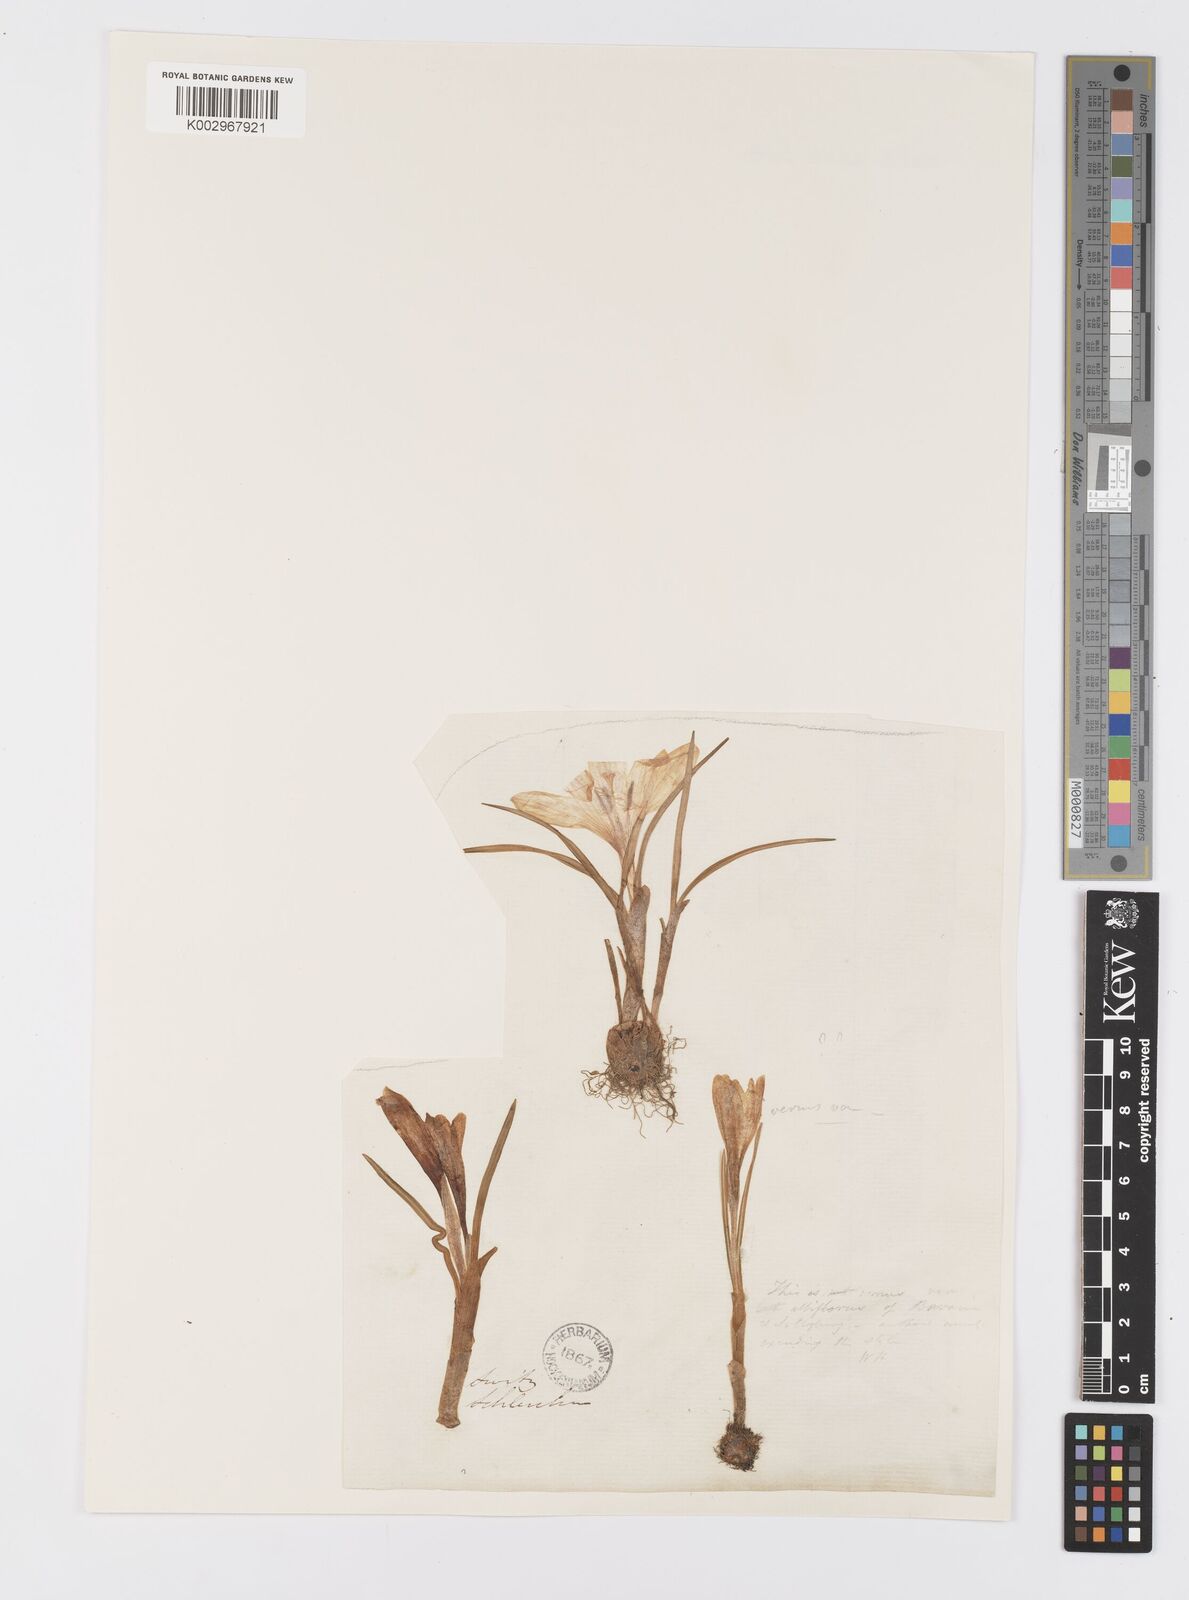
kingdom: Plantae
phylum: Tracheophyta
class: Liliopsida
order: Asparagales
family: Iridaceae
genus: Crocus
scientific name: Crocus
